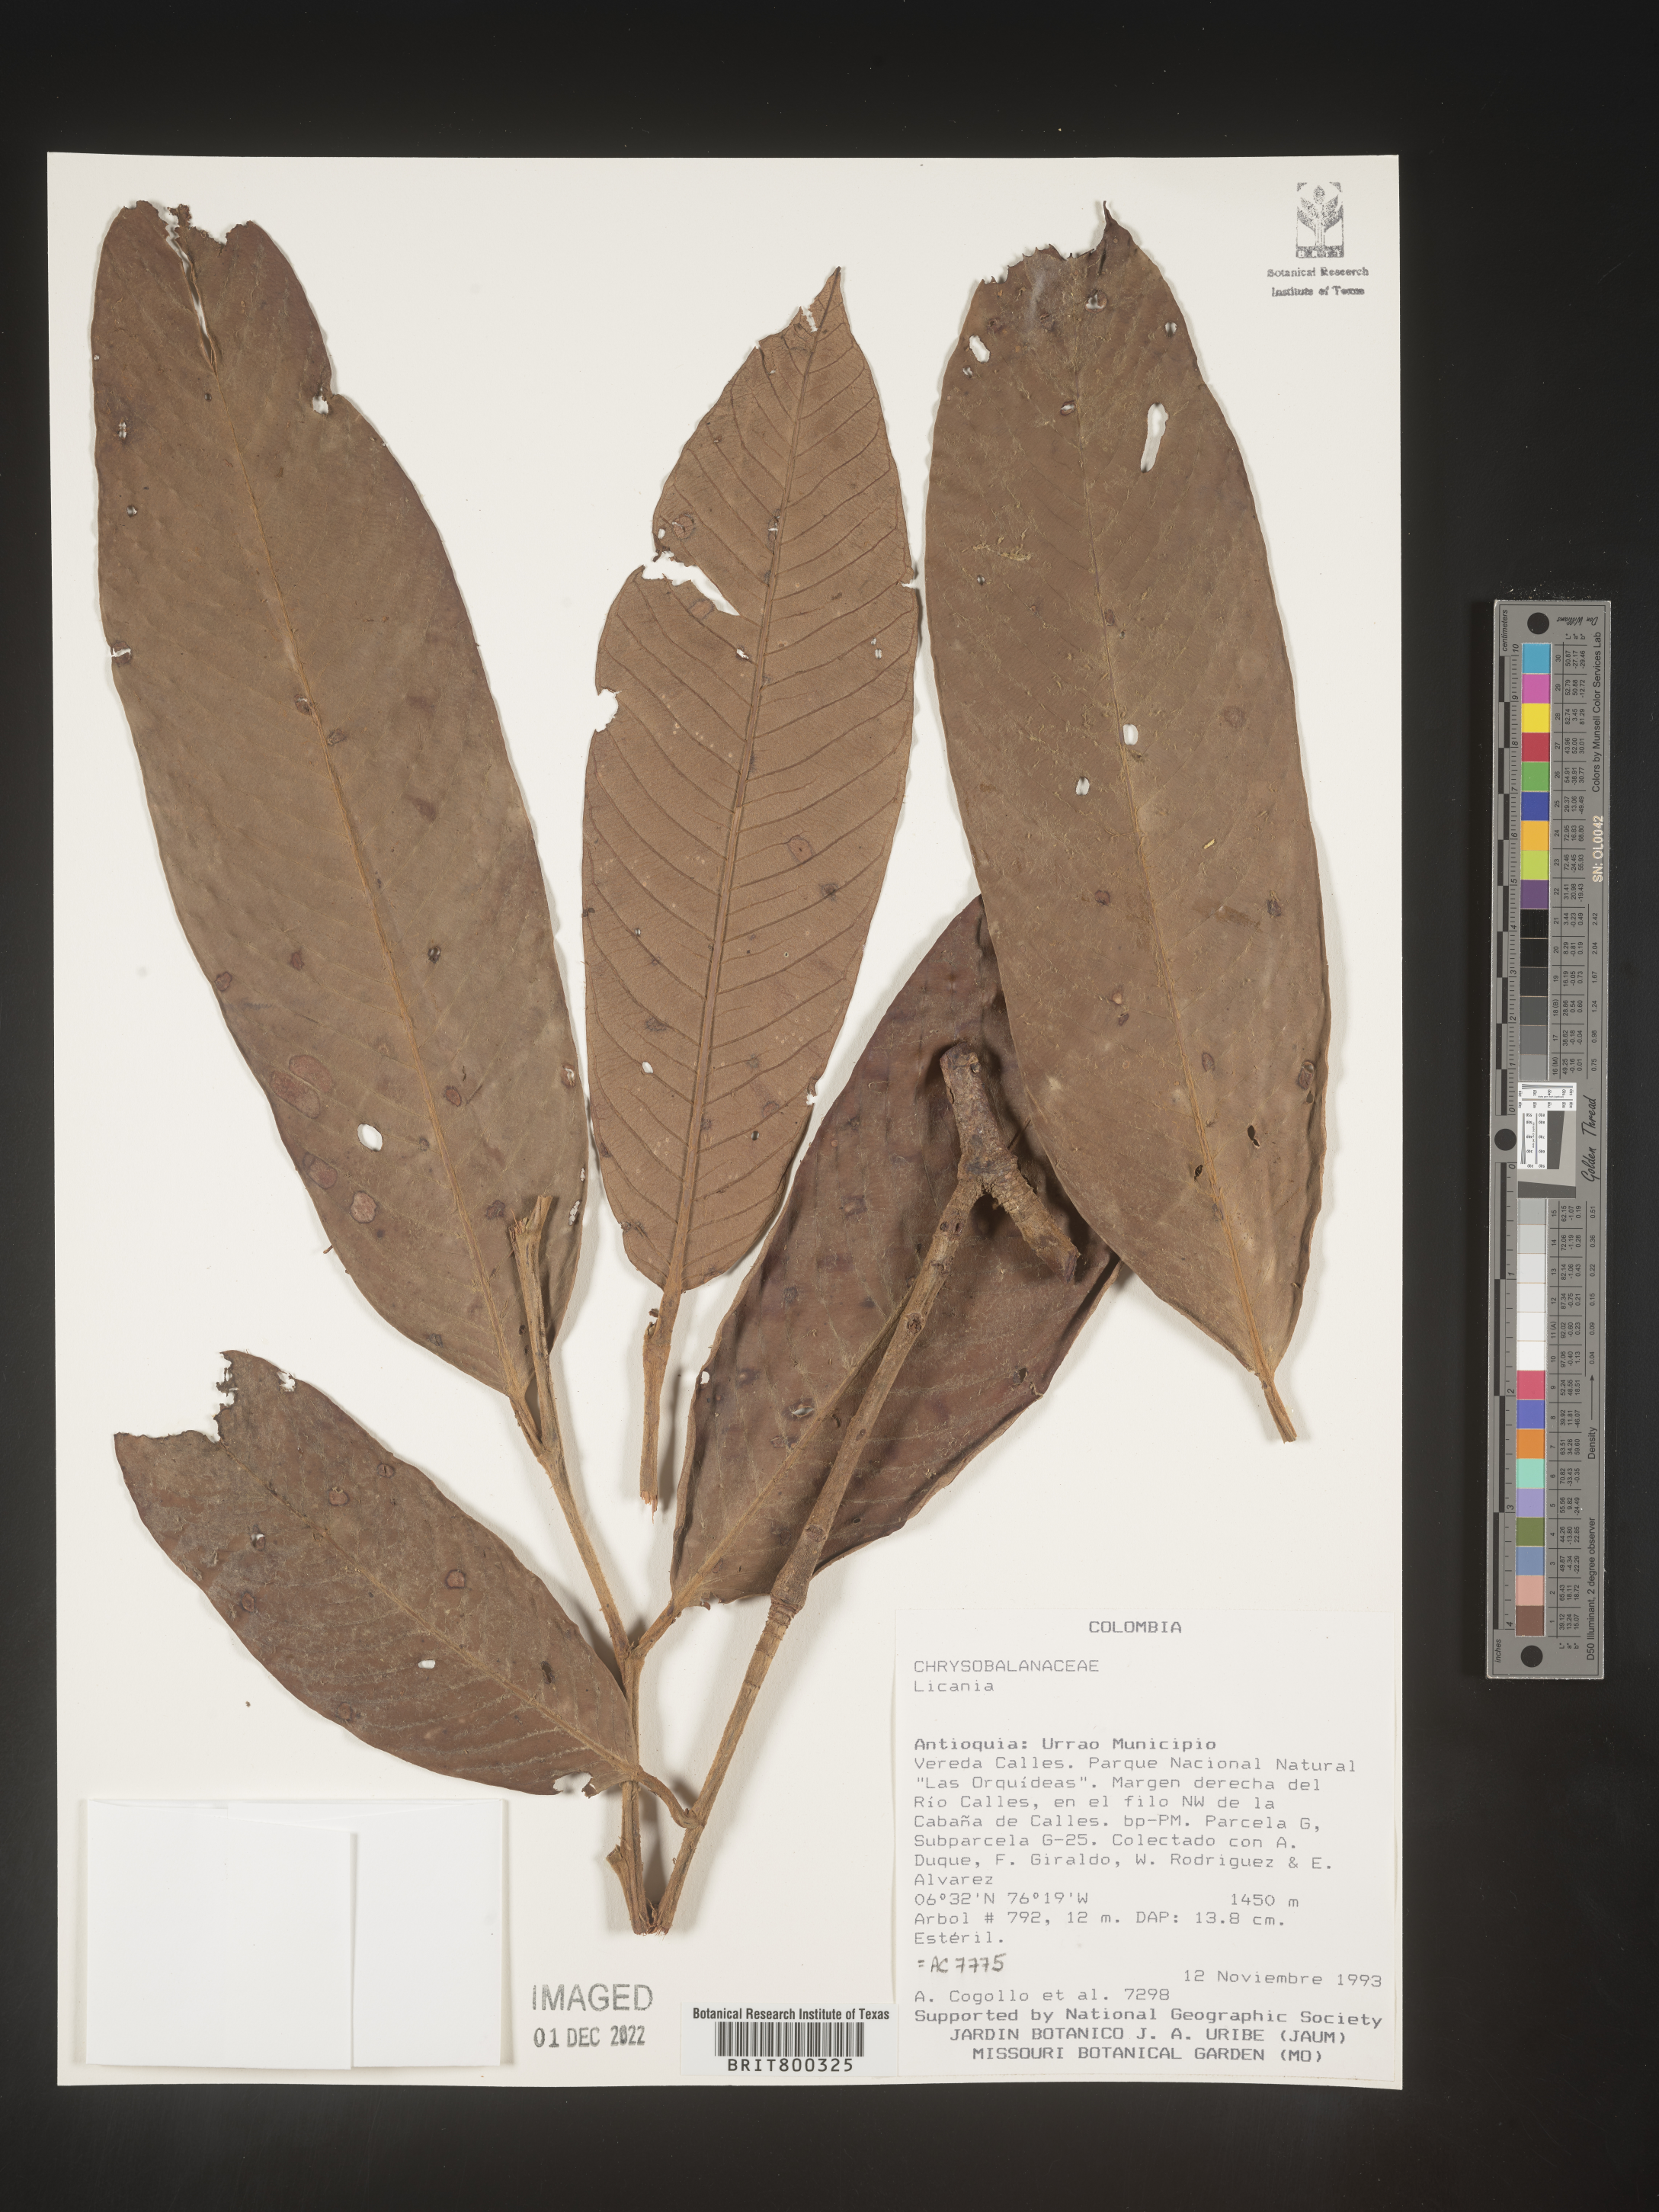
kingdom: Plantae
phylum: Tracheophyta
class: Magnoliopsida
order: Malpighiales
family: Chrysobalanaceae
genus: Licania
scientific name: Licania
